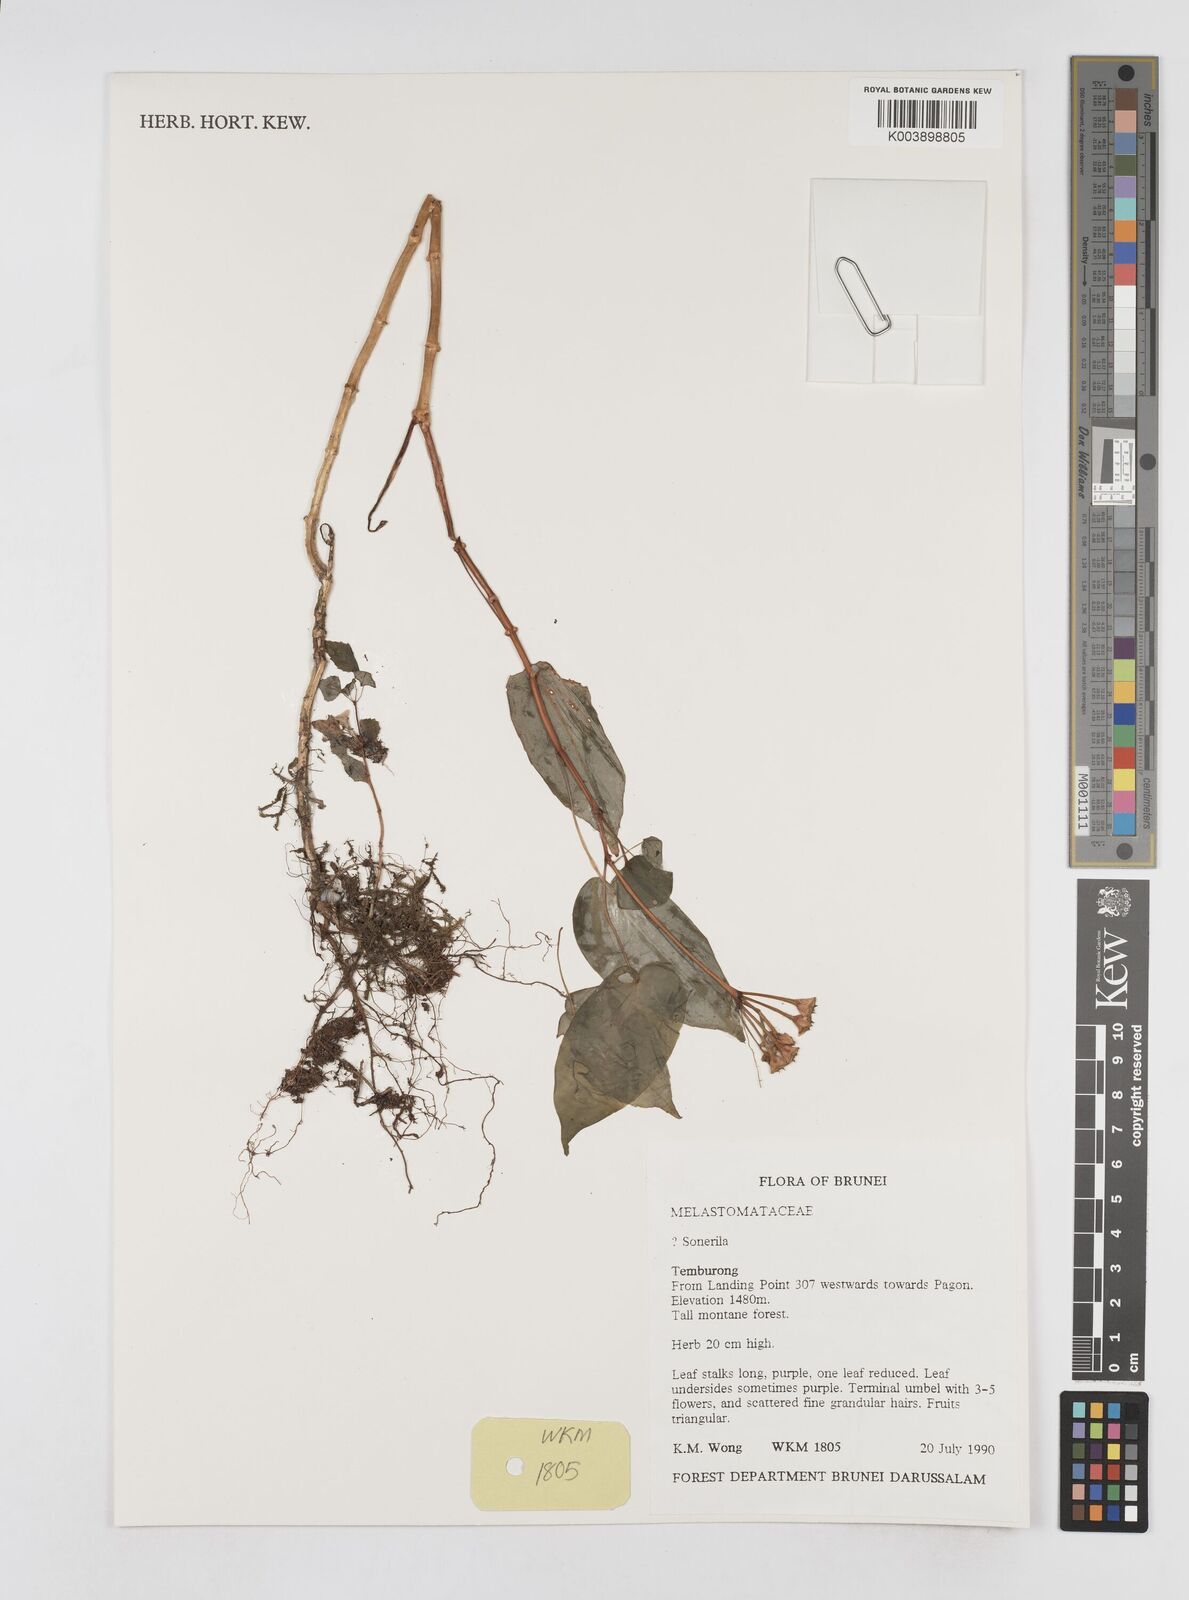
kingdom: Plantae
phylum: Tracheophyta
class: Magnoliopsida
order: Myrtales
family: Melastomataceae
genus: Sonerila
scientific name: Sonerila
